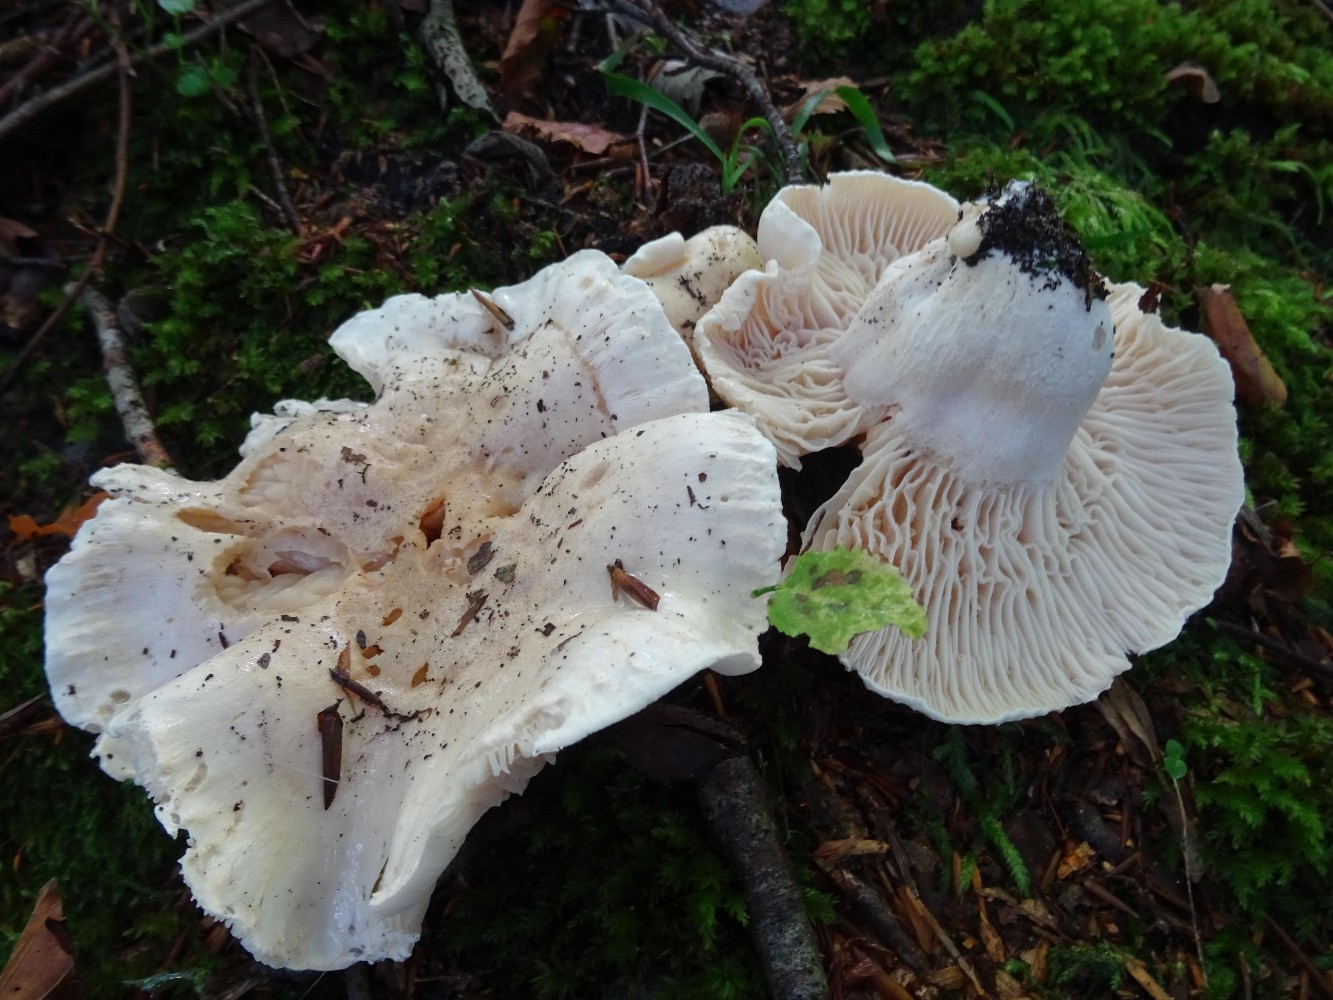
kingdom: Fungi
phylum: Basidiomycota
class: Agaricomycetes
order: Agaricales
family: Hygrophoraceae
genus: Hygrophorus
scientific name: Hygrophorus penarius
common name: spiselig sneglehat
